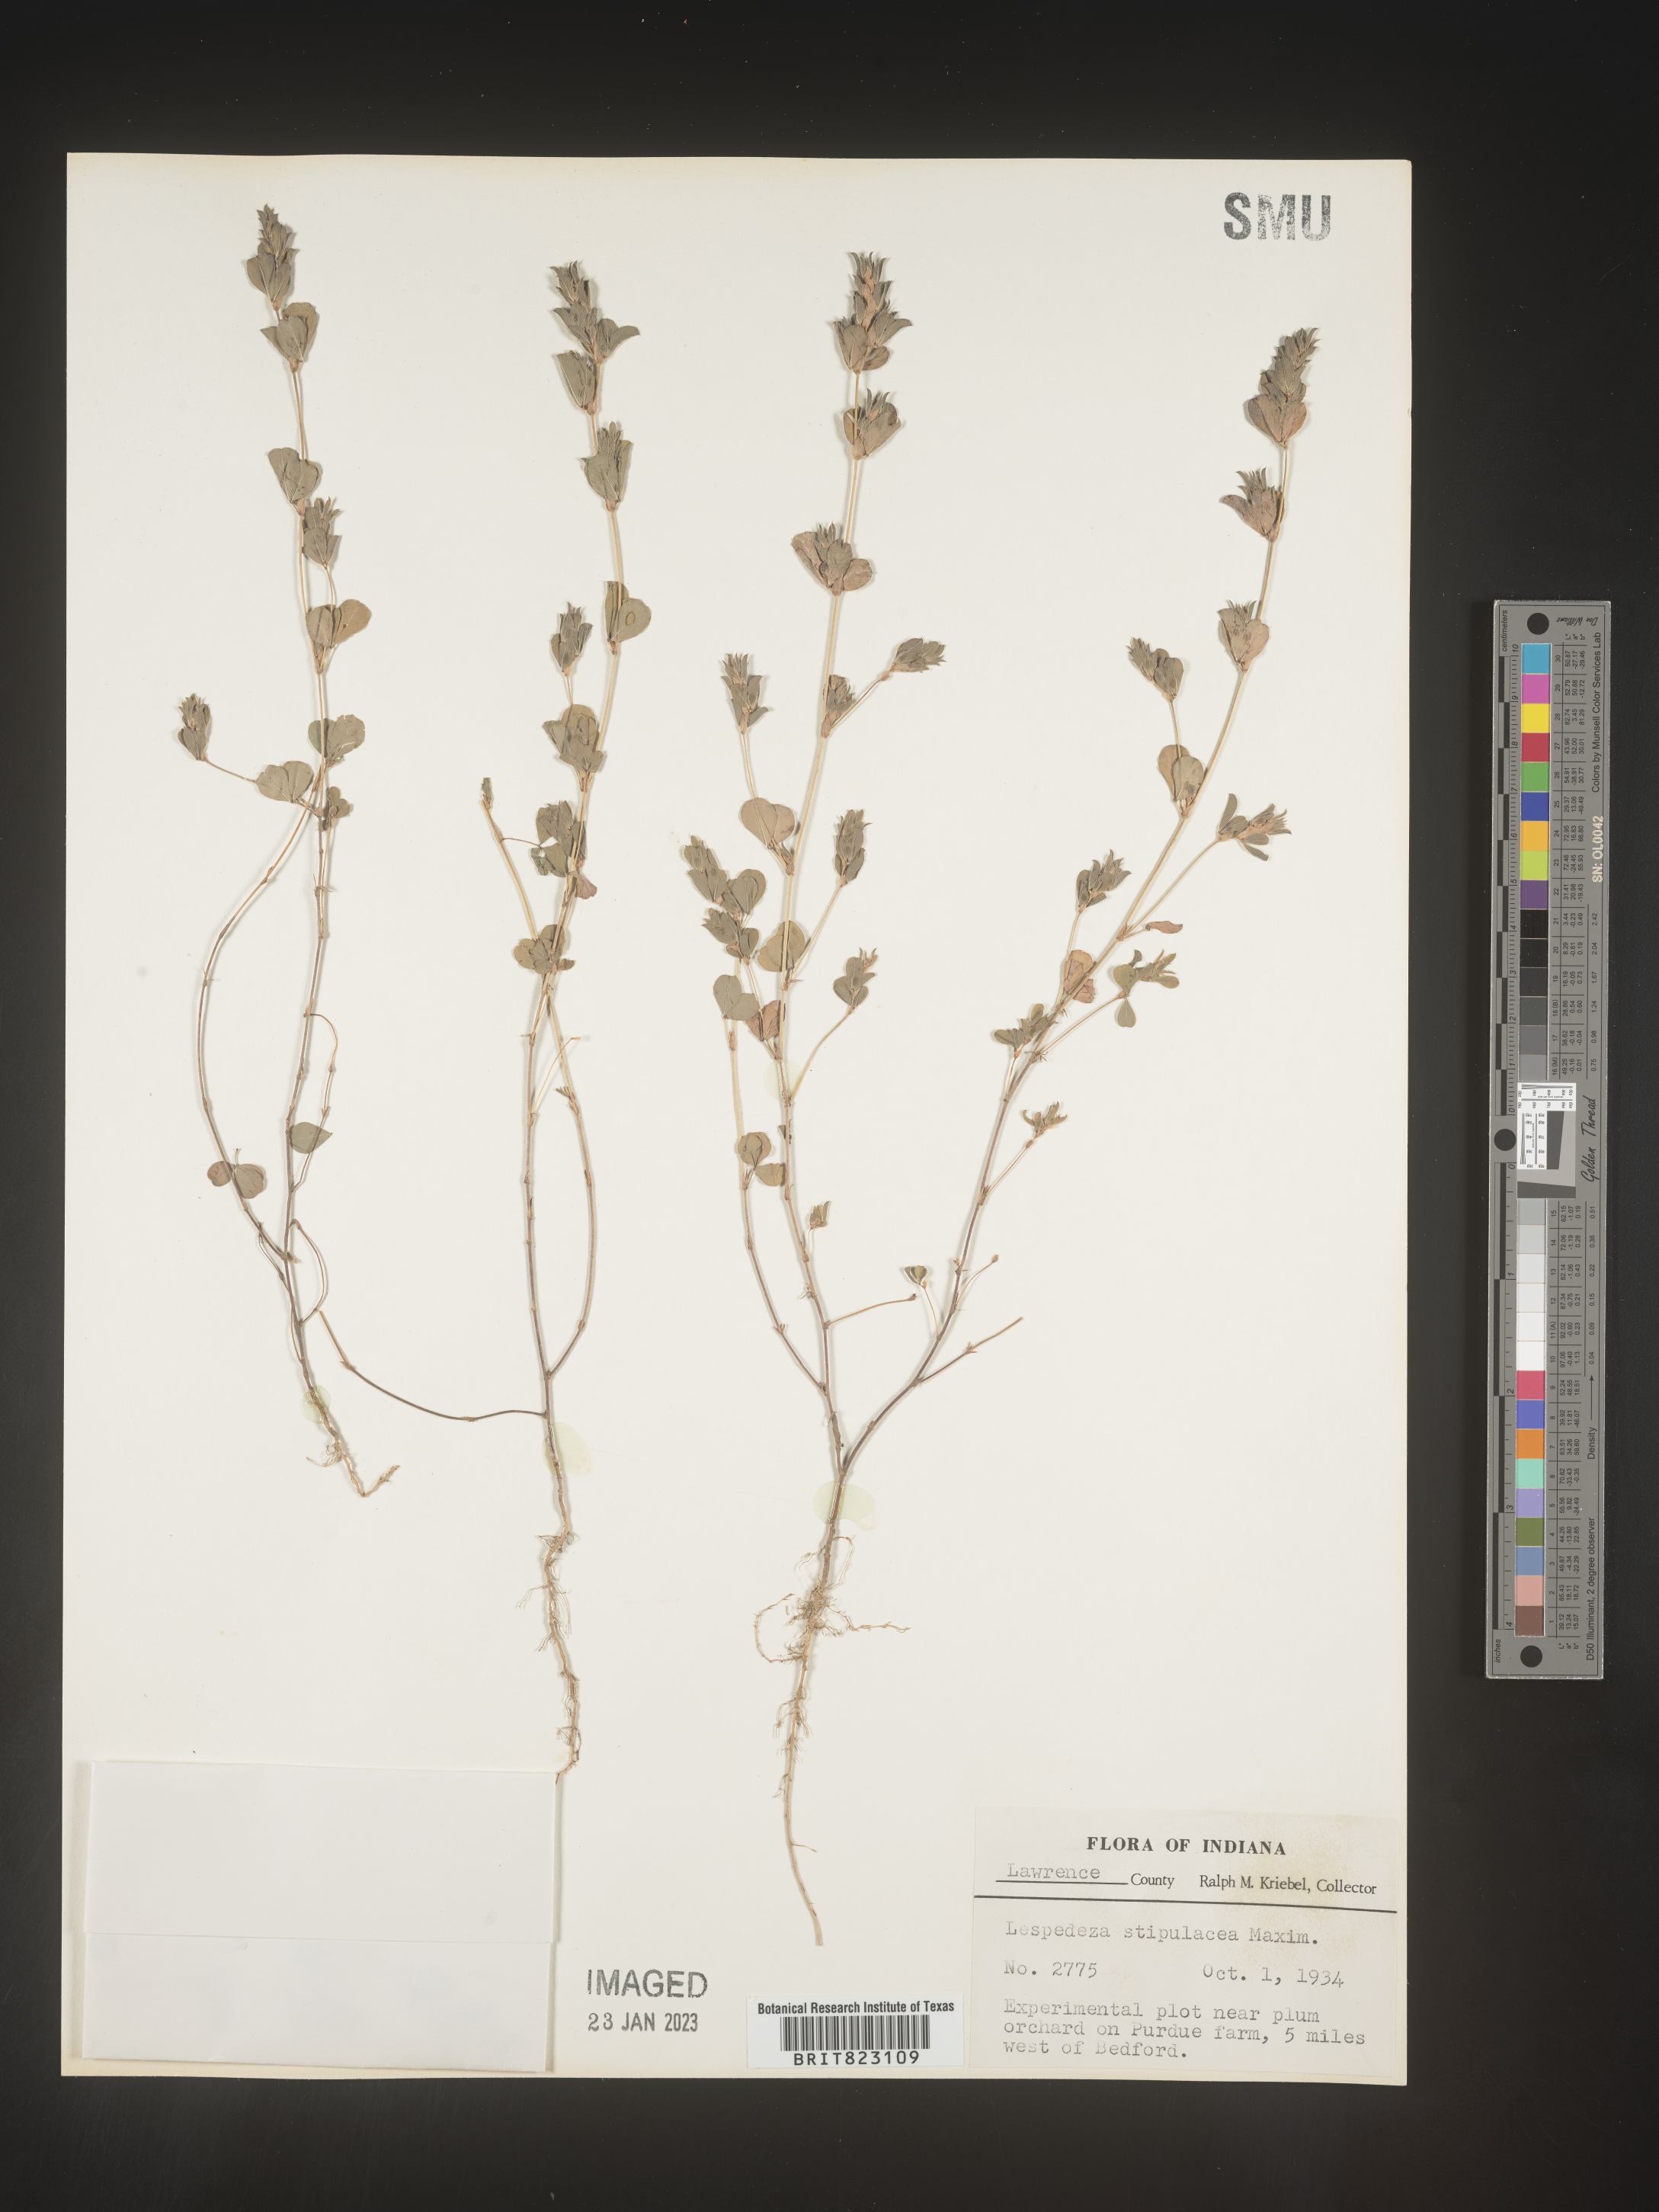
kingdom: Plantae
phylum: Tracheophyta
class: Magnoliopsida
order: Fabales
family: Fabaceae
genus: Lespedeza
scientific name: Lespedeza
